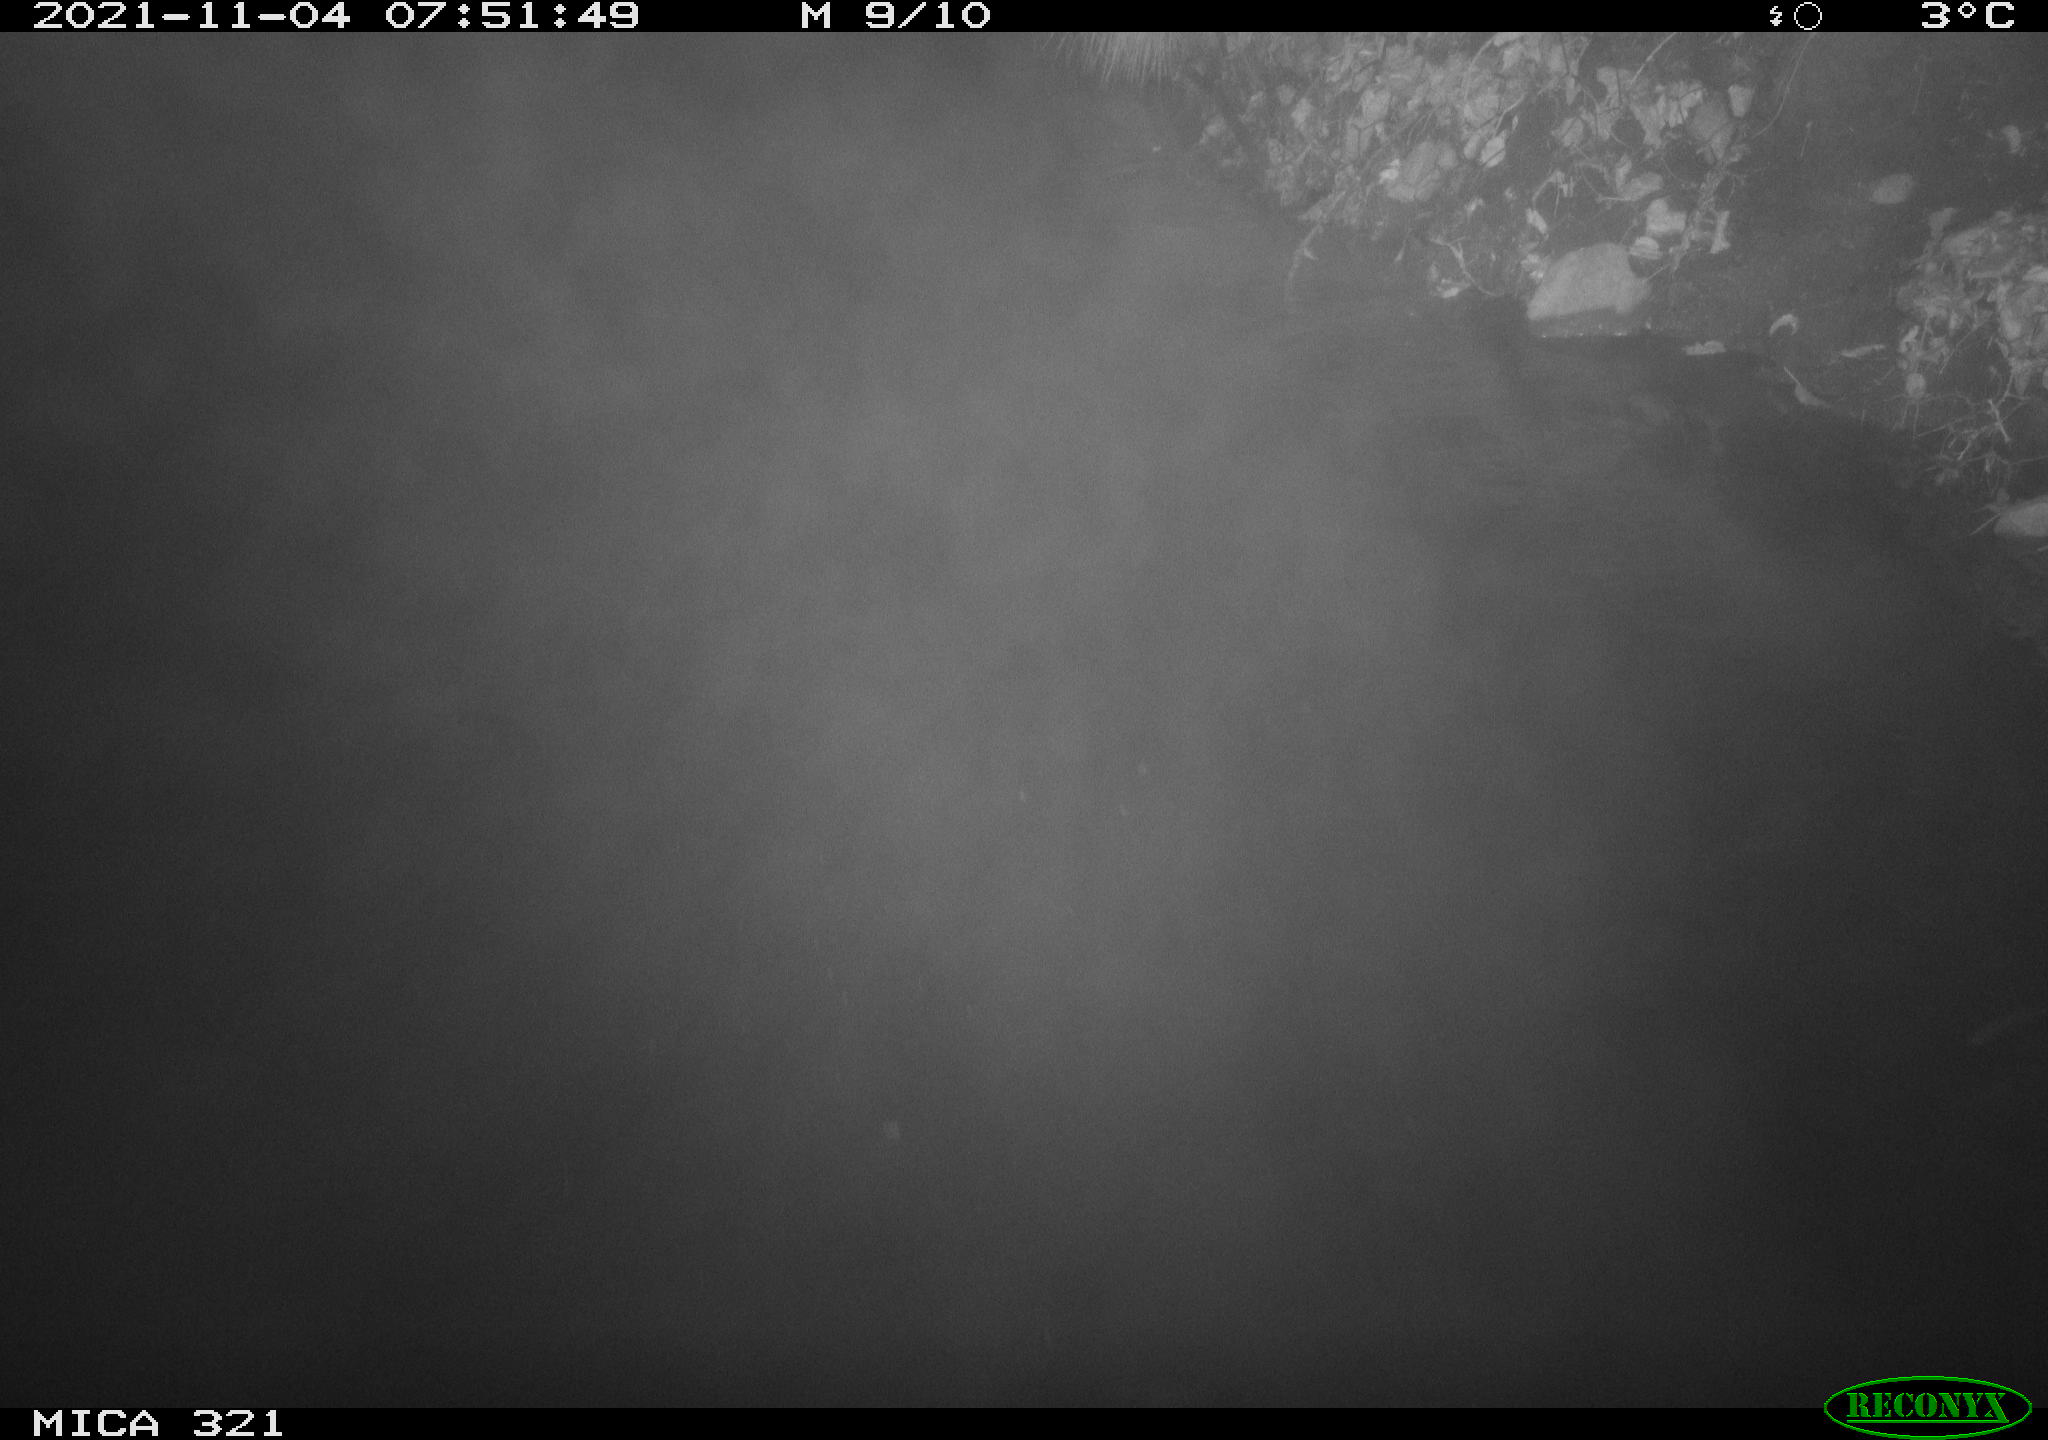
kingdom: Animalia
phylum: Chordata
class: Aves
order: Anseriformes
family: Anatidae
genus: Anas
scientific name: Anas platyrhynchos
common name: Mallard
